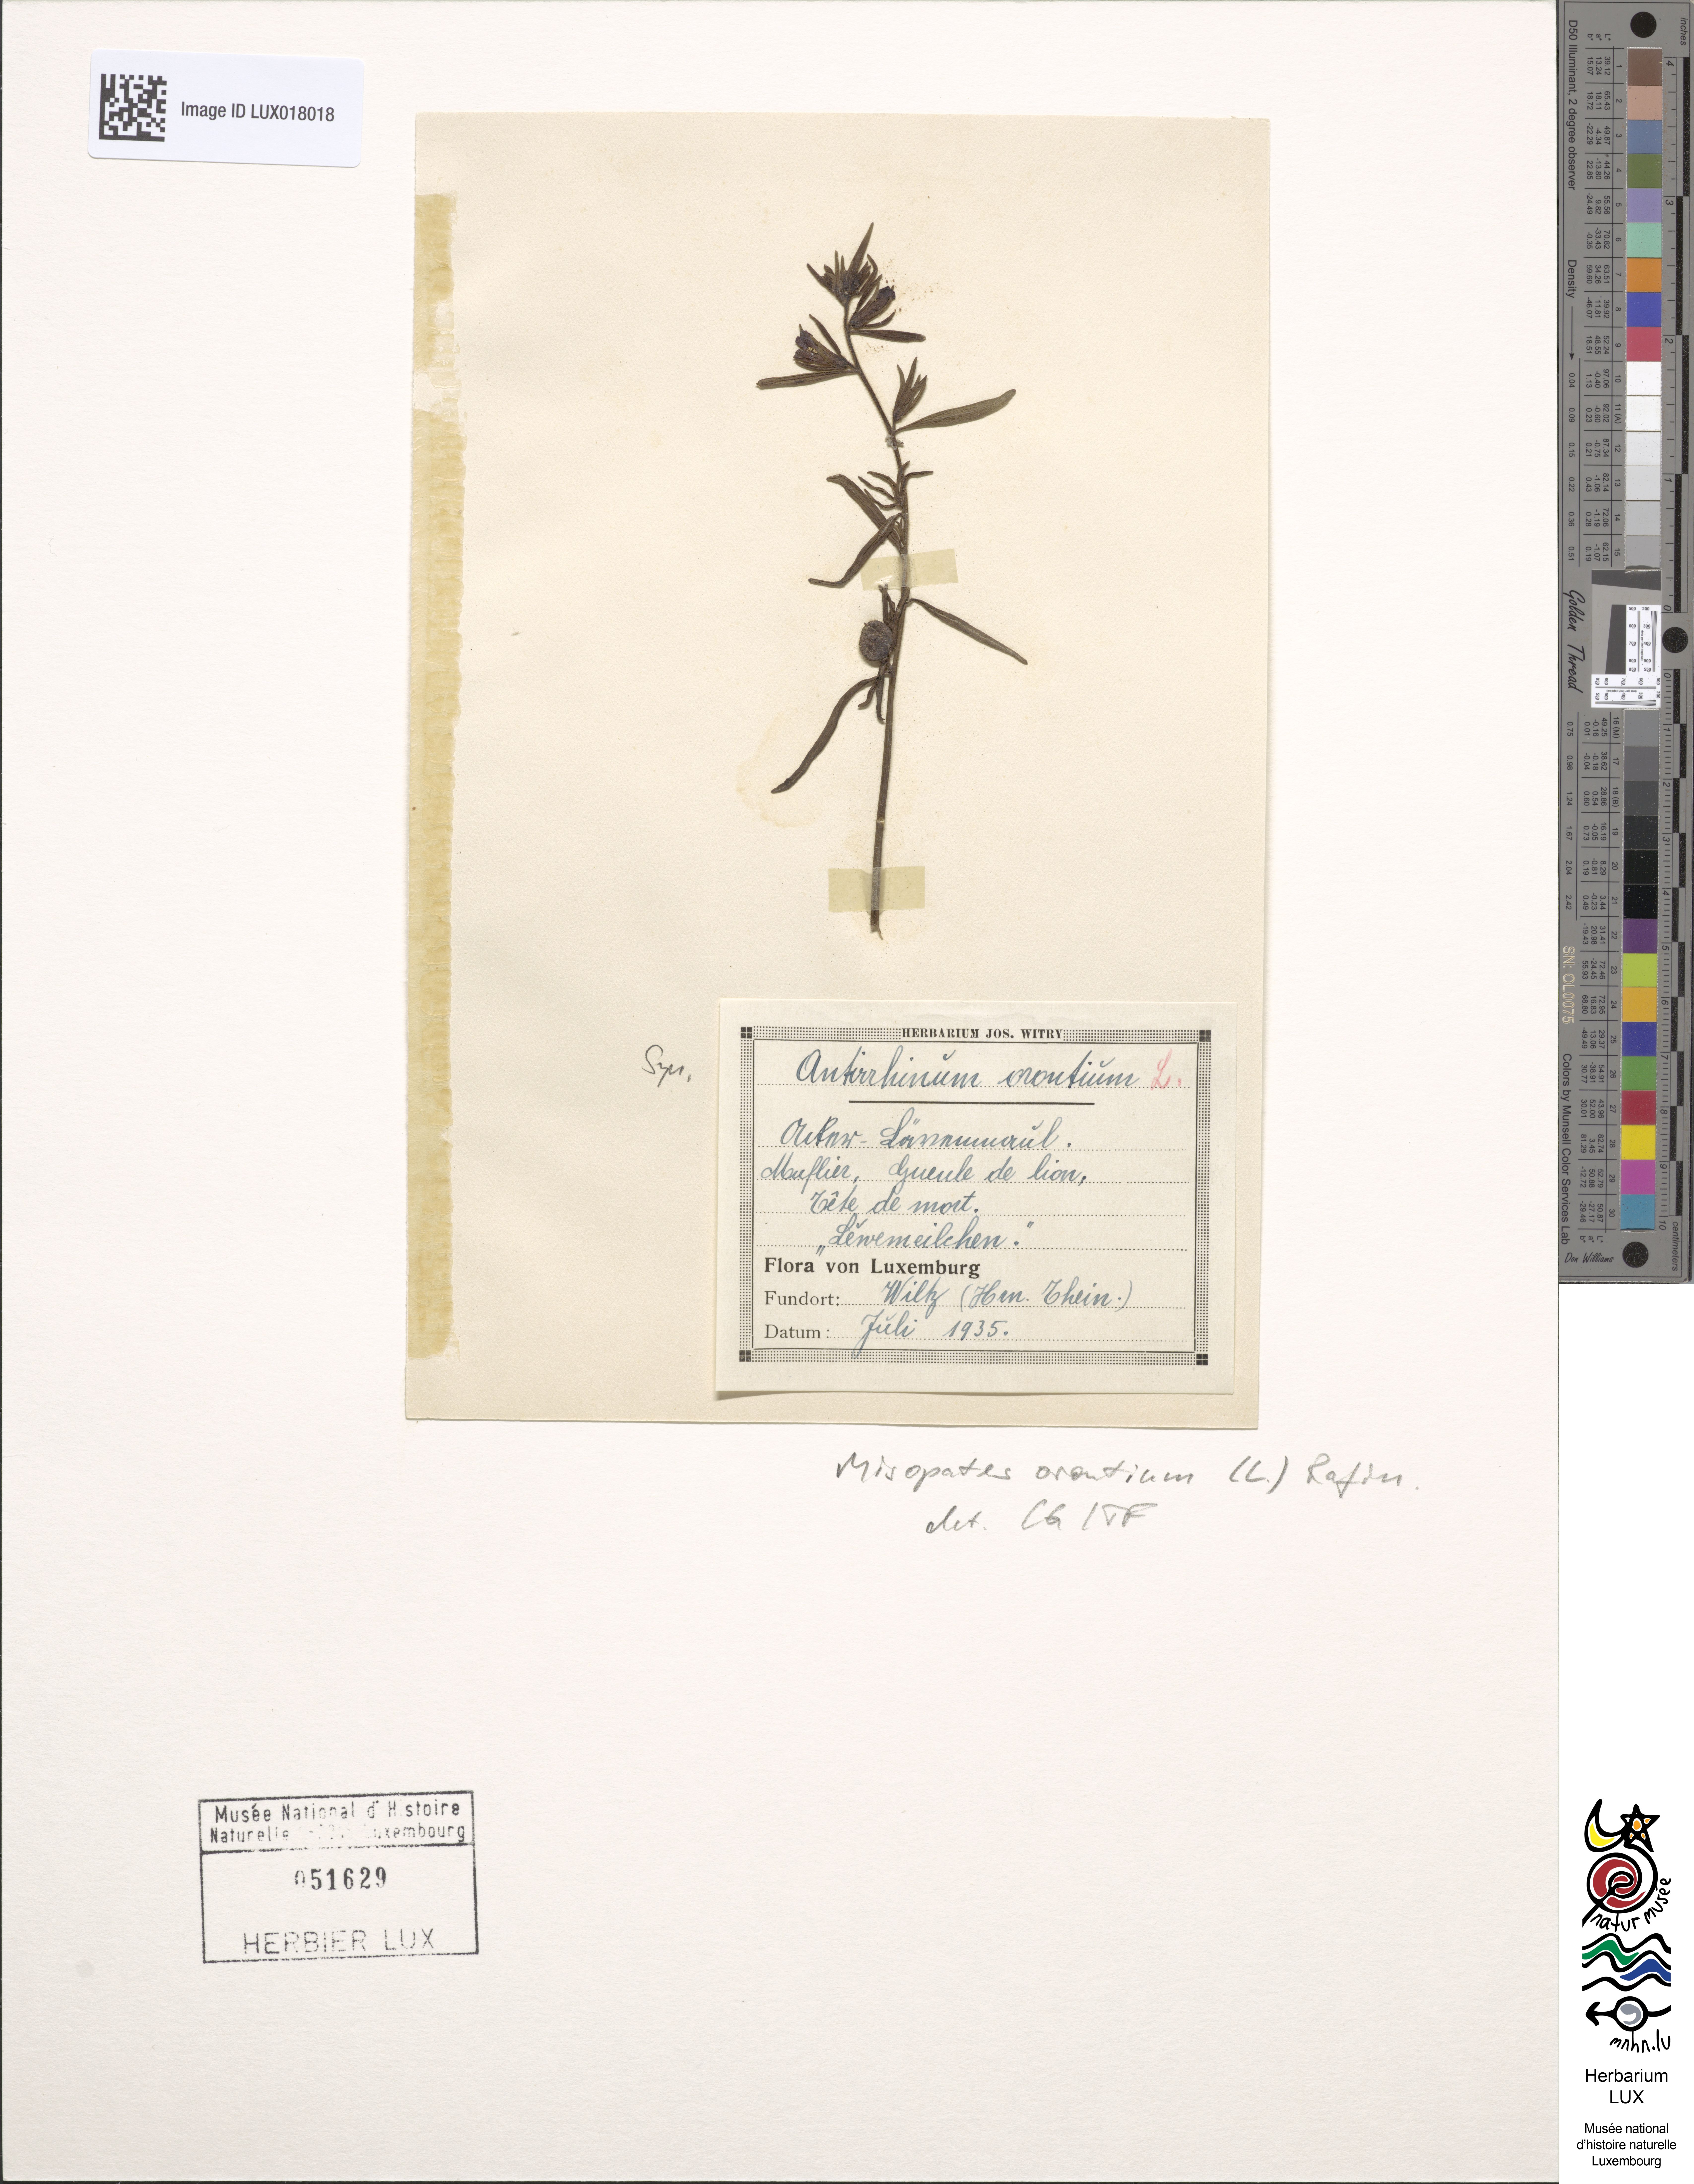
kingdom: Plantae
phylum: Tracheophyta
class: Magnoliopsida
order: Lamiales
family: Plantaginaceae
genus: Misopates
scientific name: Misopates orontium
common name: Weasel's-snout
